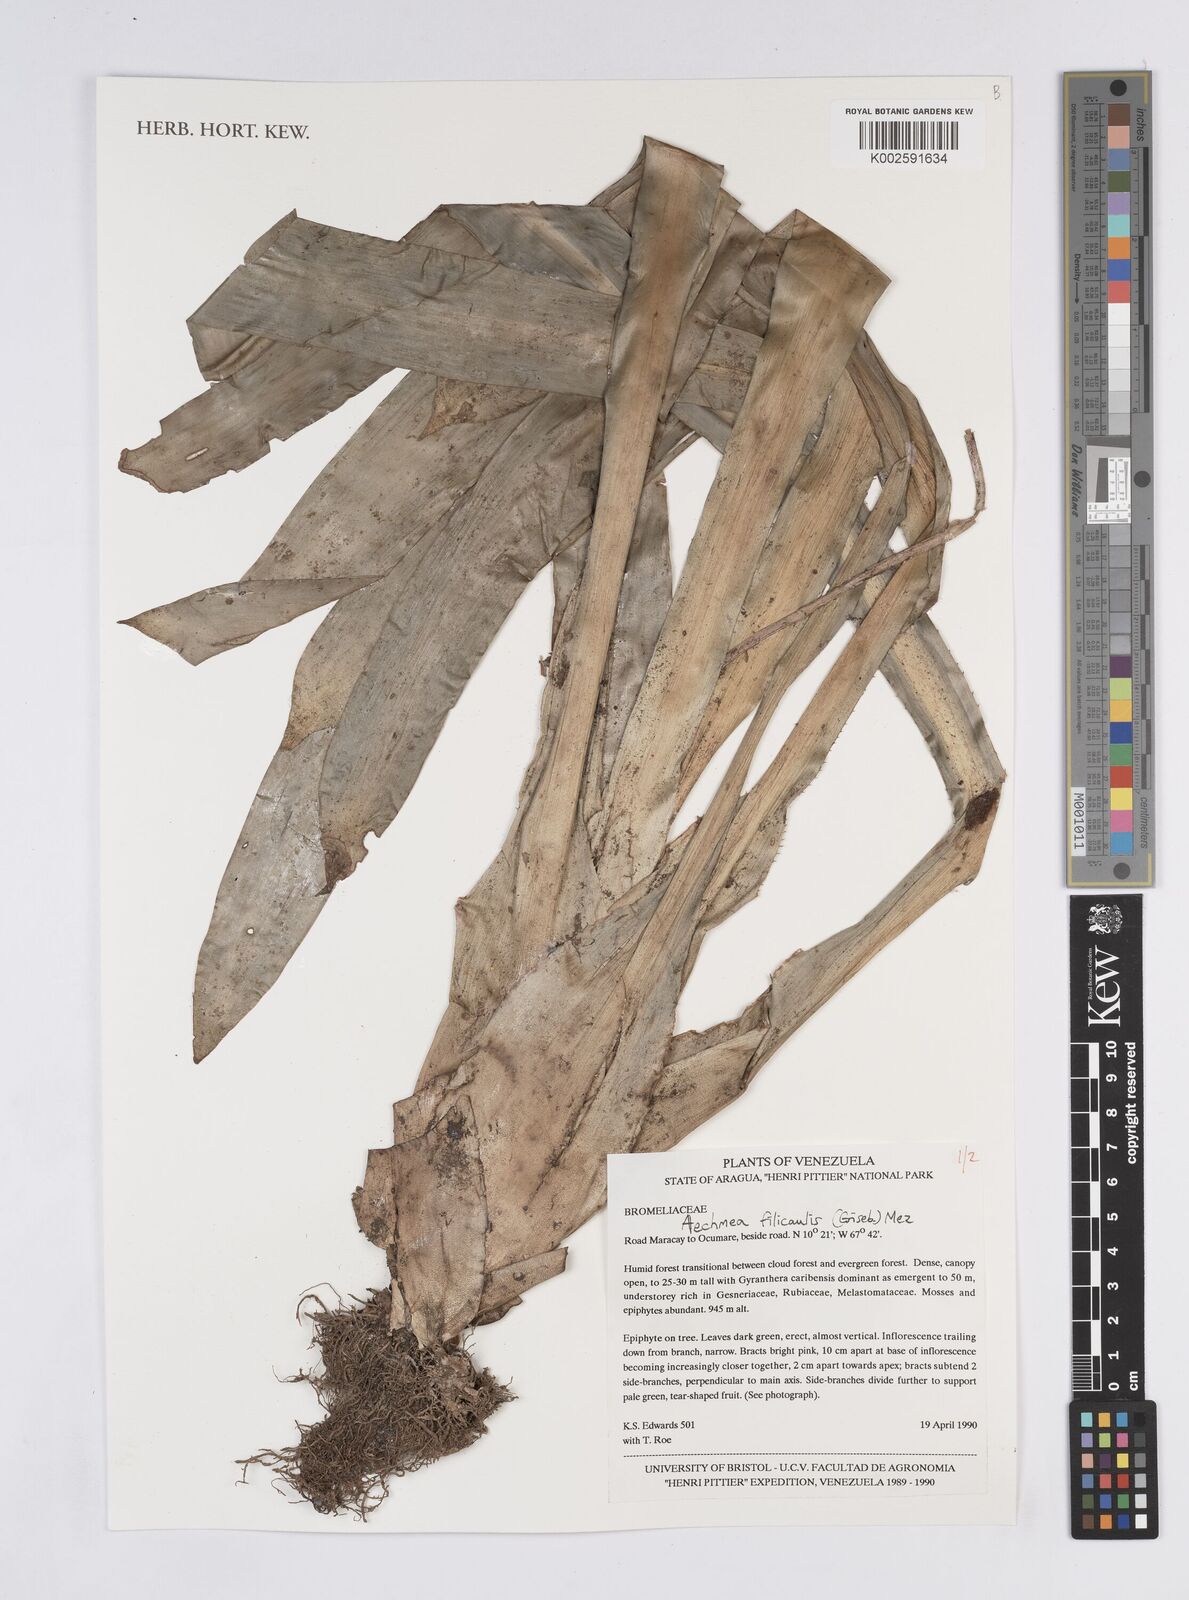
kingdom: Plantae
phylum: Tracheophyta
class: Liliopsida
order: Poales
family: Bromeliaceae
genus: Aechmea
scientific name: Aechmea filicaulis
